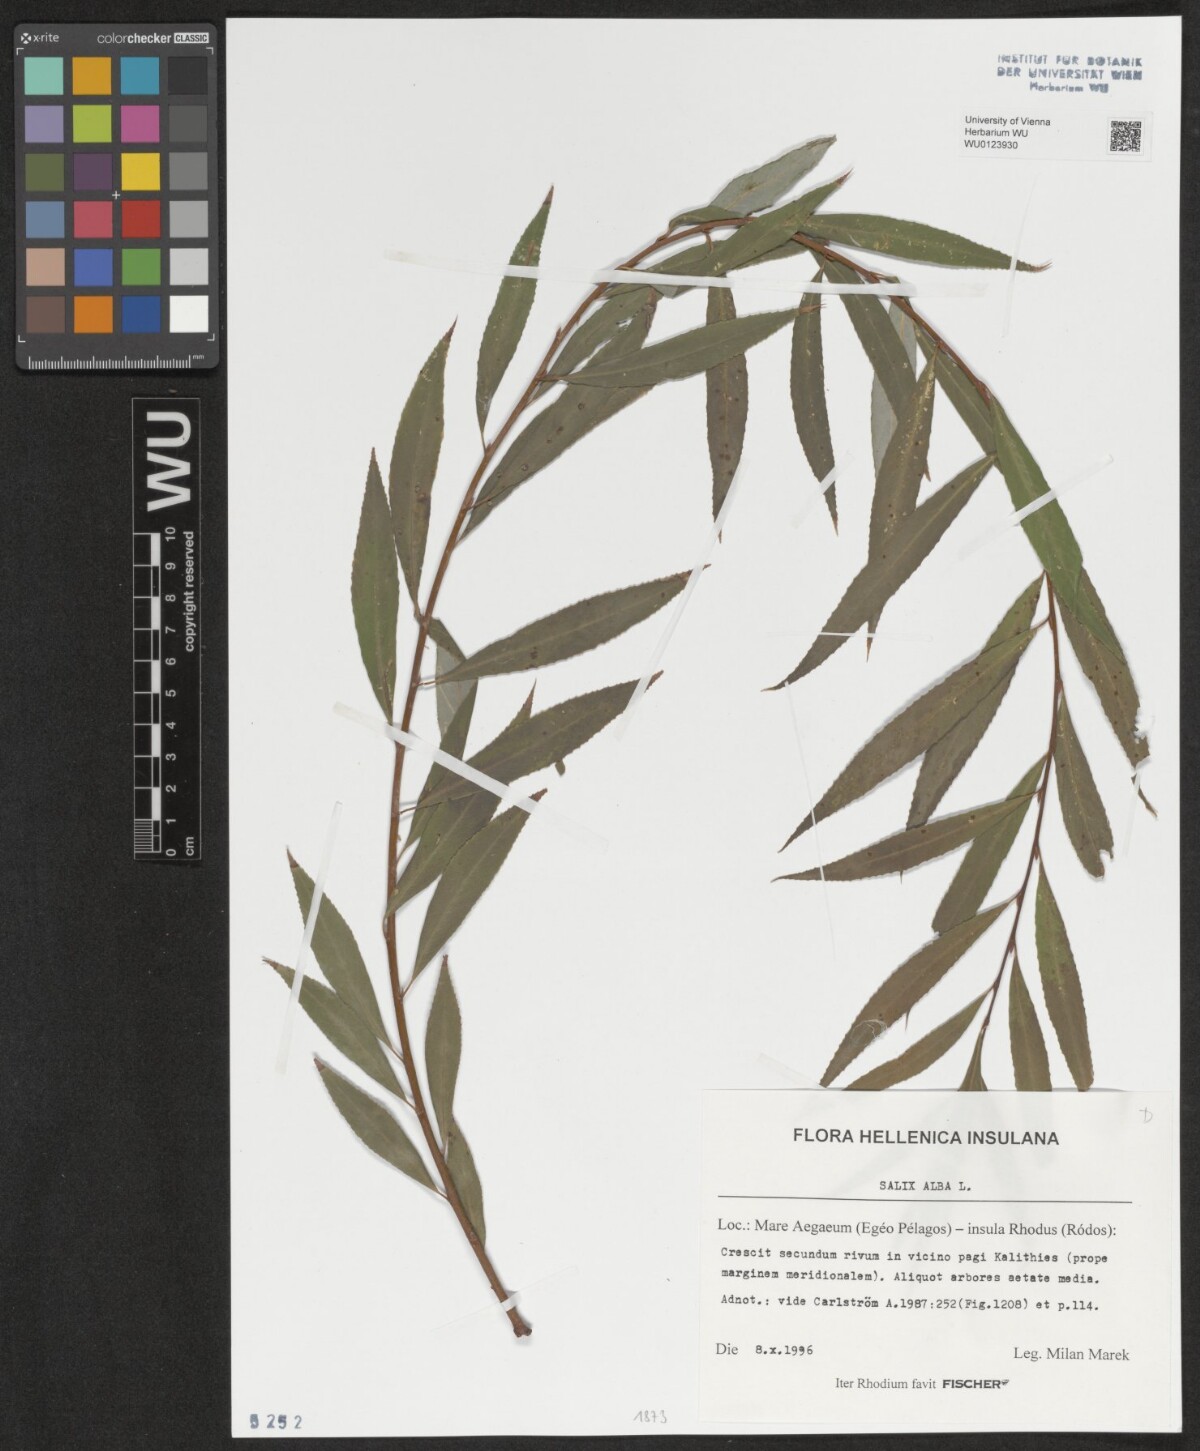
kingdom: Plantae
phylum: Tracheophyta
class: Magnoliopsida
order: Malpighiales
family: Salicaceae
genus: Salix
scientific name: Salix alba
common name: White willow
